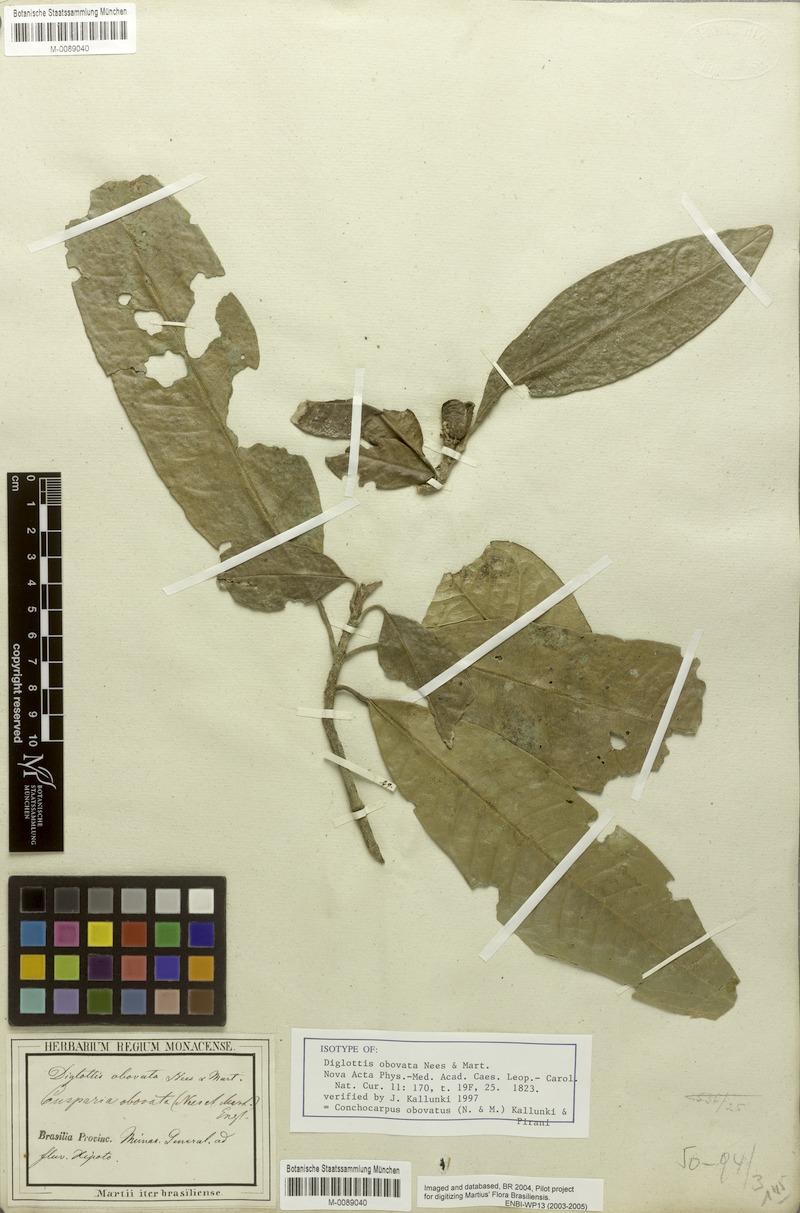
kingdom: Plantae
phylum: Tracheophyta
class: Magnoliopsida
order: Sapindales
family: Rutaceae
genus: Conchocarpus
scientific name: Conchocarpus obovatus
